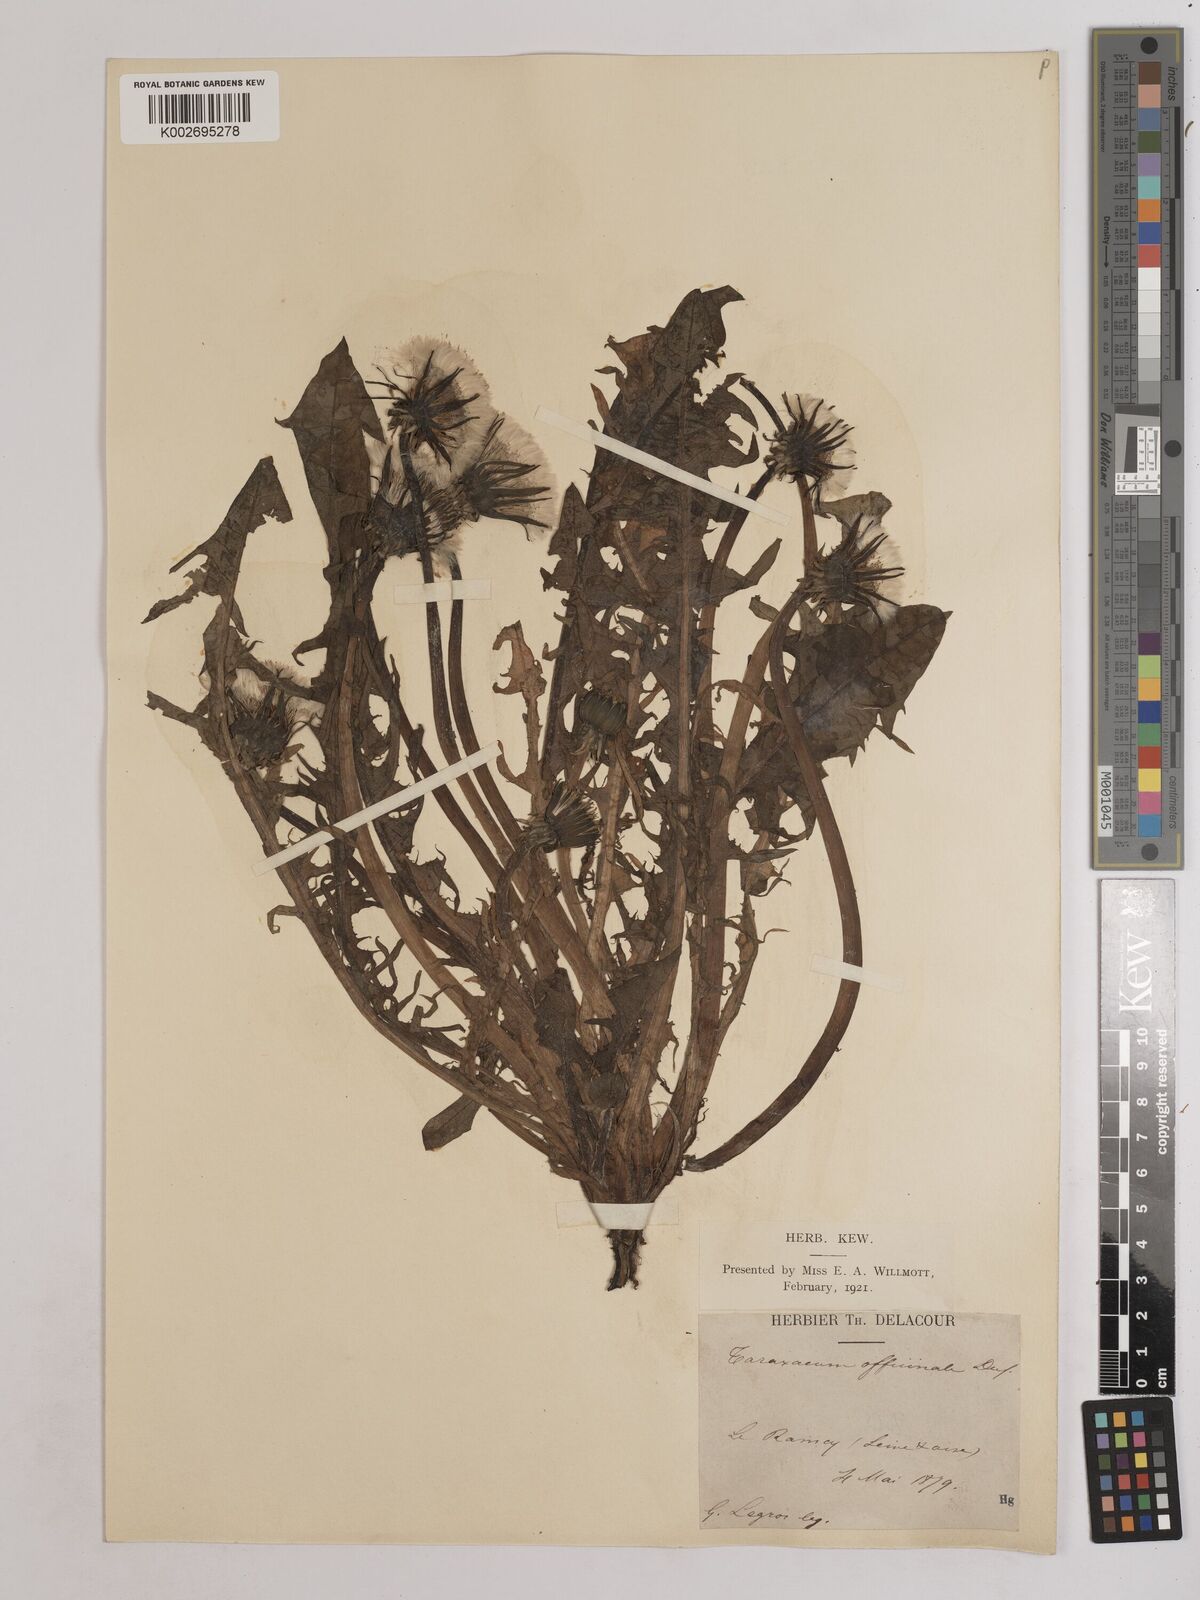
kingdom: Plantae
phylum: Tracheophyta
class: Magnoliopsida
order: Asterales
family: Asteraceae
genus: Taraxacum
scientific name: Taraxacum officinale
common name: Common dandelion
